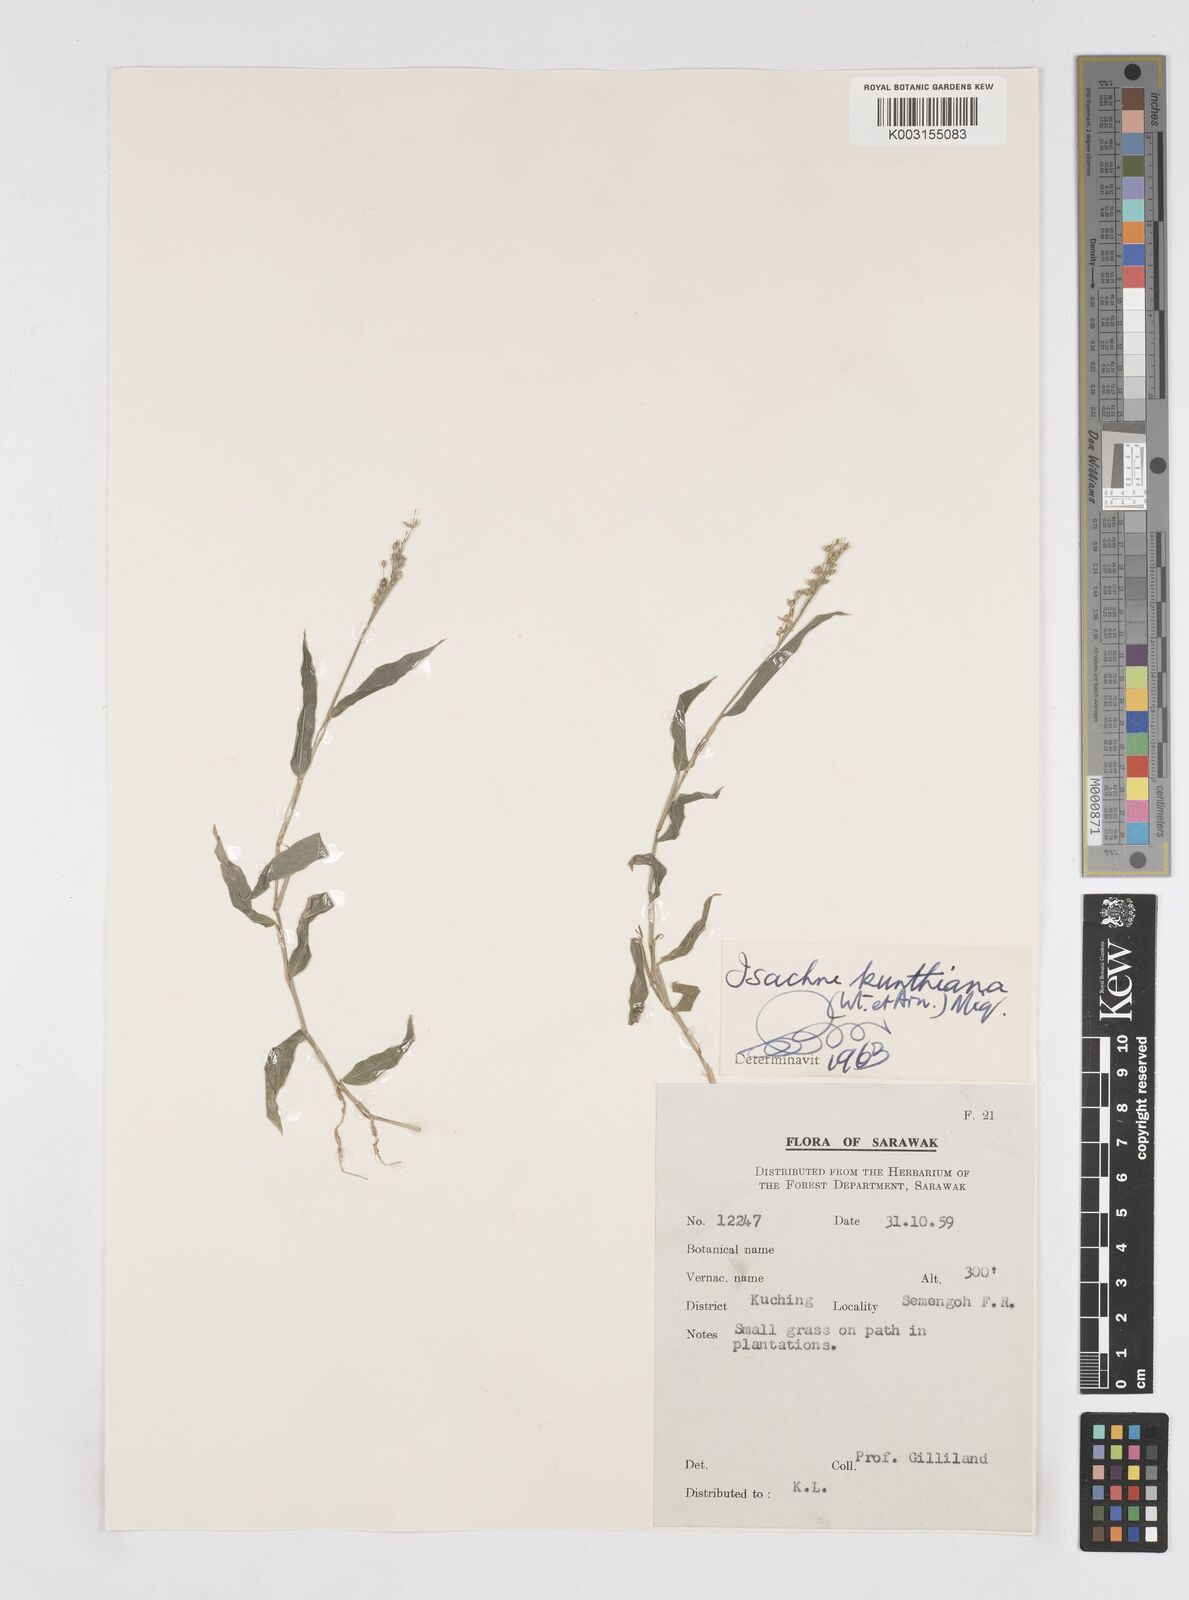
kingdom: Plantae
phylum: Tracheophyta
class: Liliopsida
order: Poales
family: Poaceae
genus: Isachne
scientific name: Isachne schmidtii
